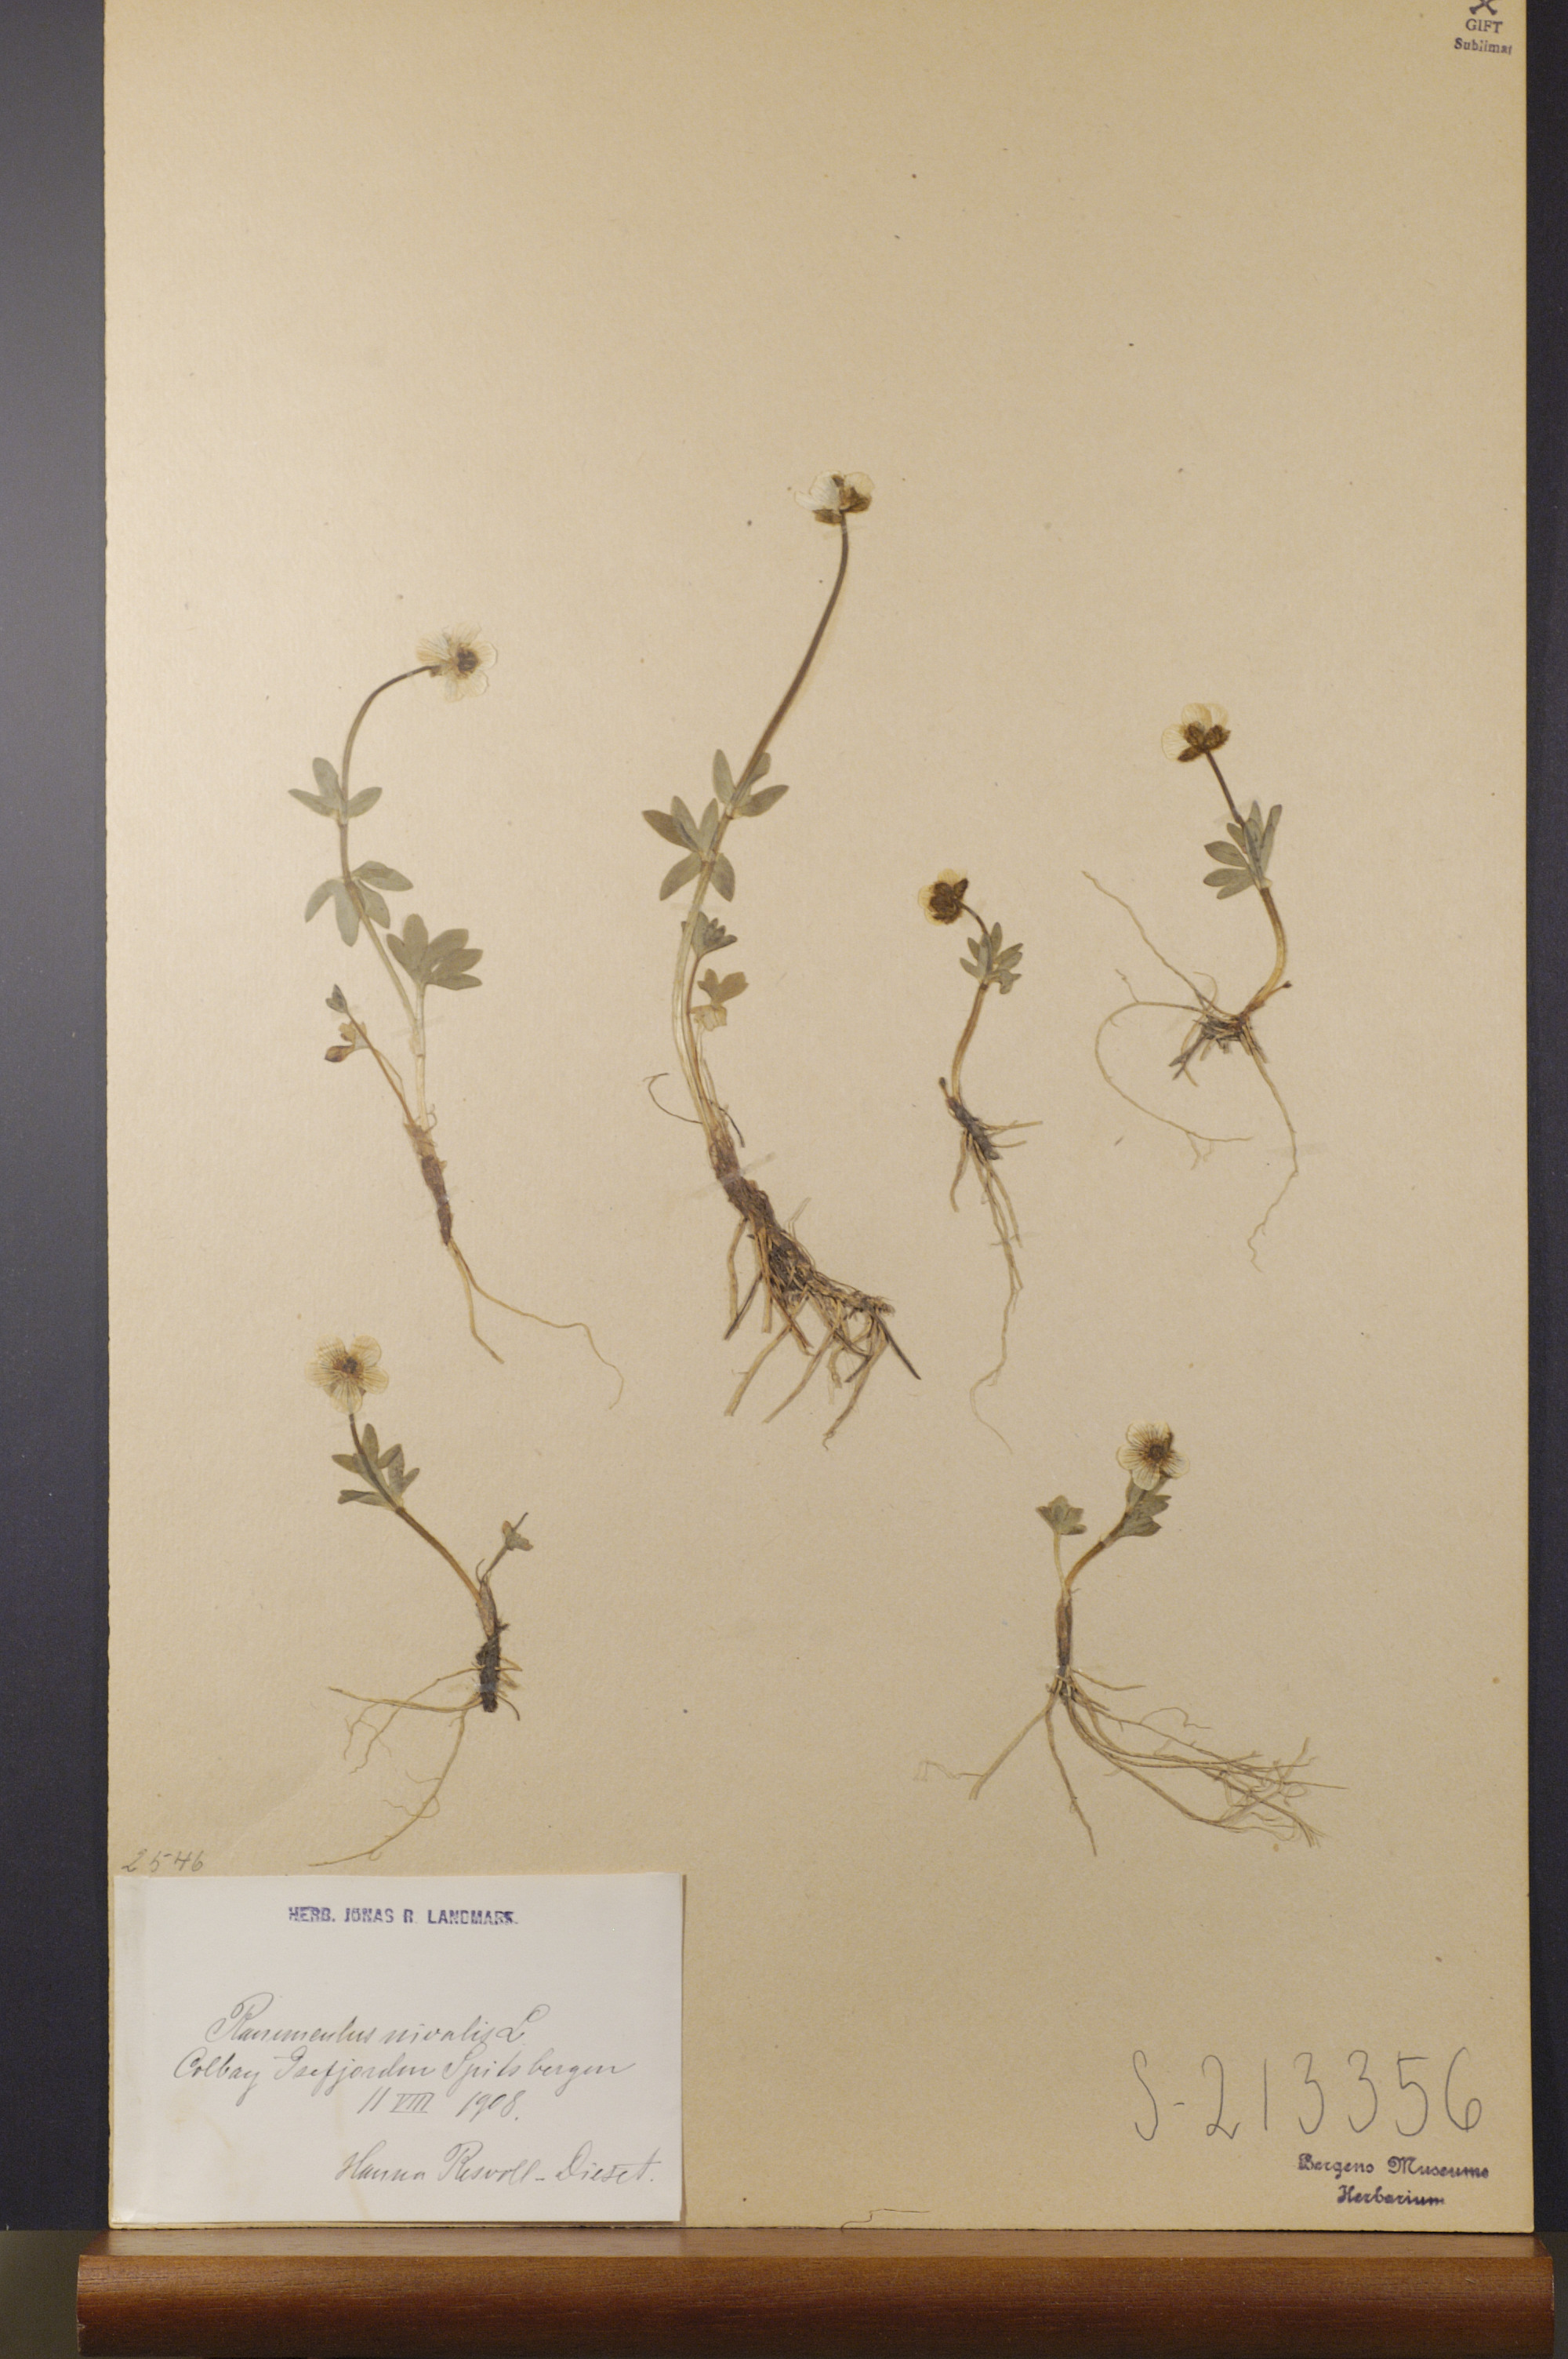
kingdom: Plantae
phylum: Tracheophyta
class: Magnoliopsida
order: Ranunculales
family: Ranunculaceae
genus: Ranunculus
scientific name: Ranunculus nivalis
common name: Snow buttercup
